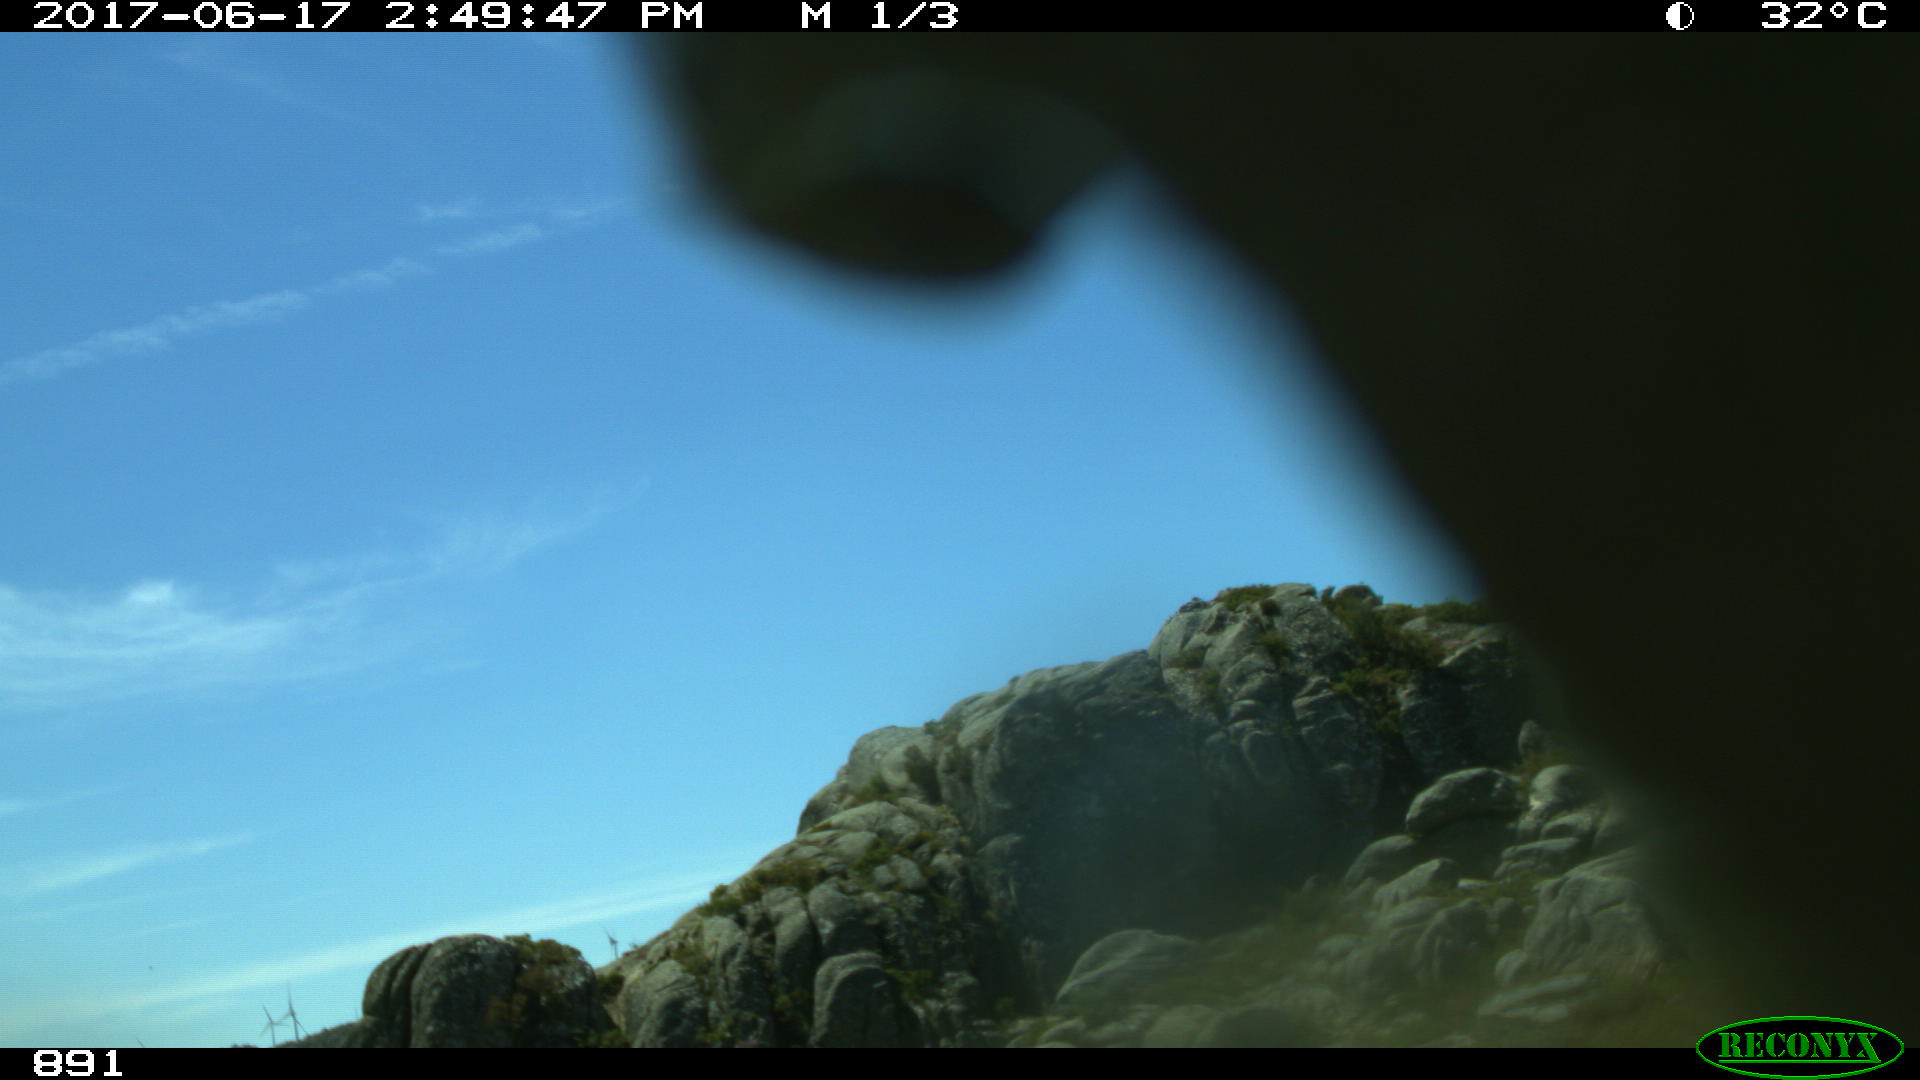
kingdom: Animalia
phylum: Chordata
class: Mammalia
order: Artiodactyla
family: Bovidae
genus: Bos
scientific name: Bos taurus
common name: Domesticated cattle
